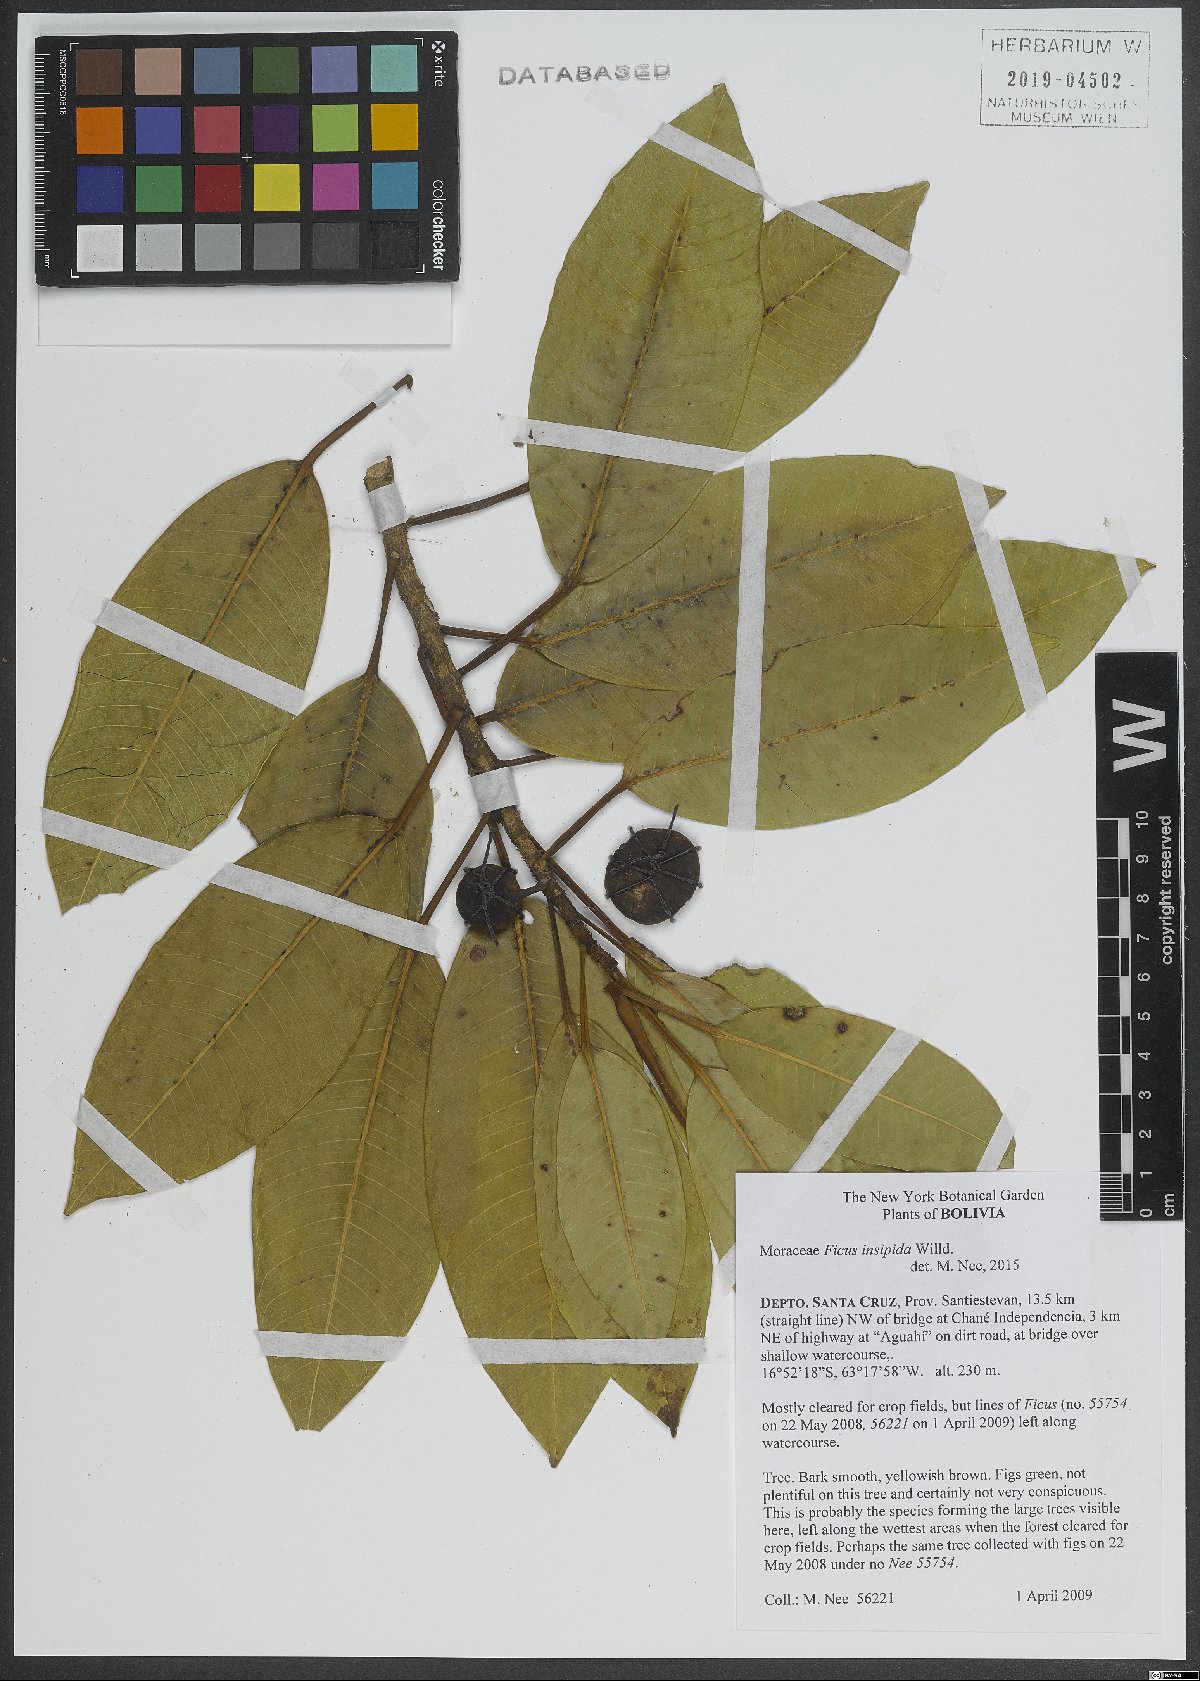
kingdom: Plantae
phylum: Tracheophyta
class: Magnoliopsida
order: Rosales
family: Moraceae
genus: Ficus
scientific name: Ficus insipida
